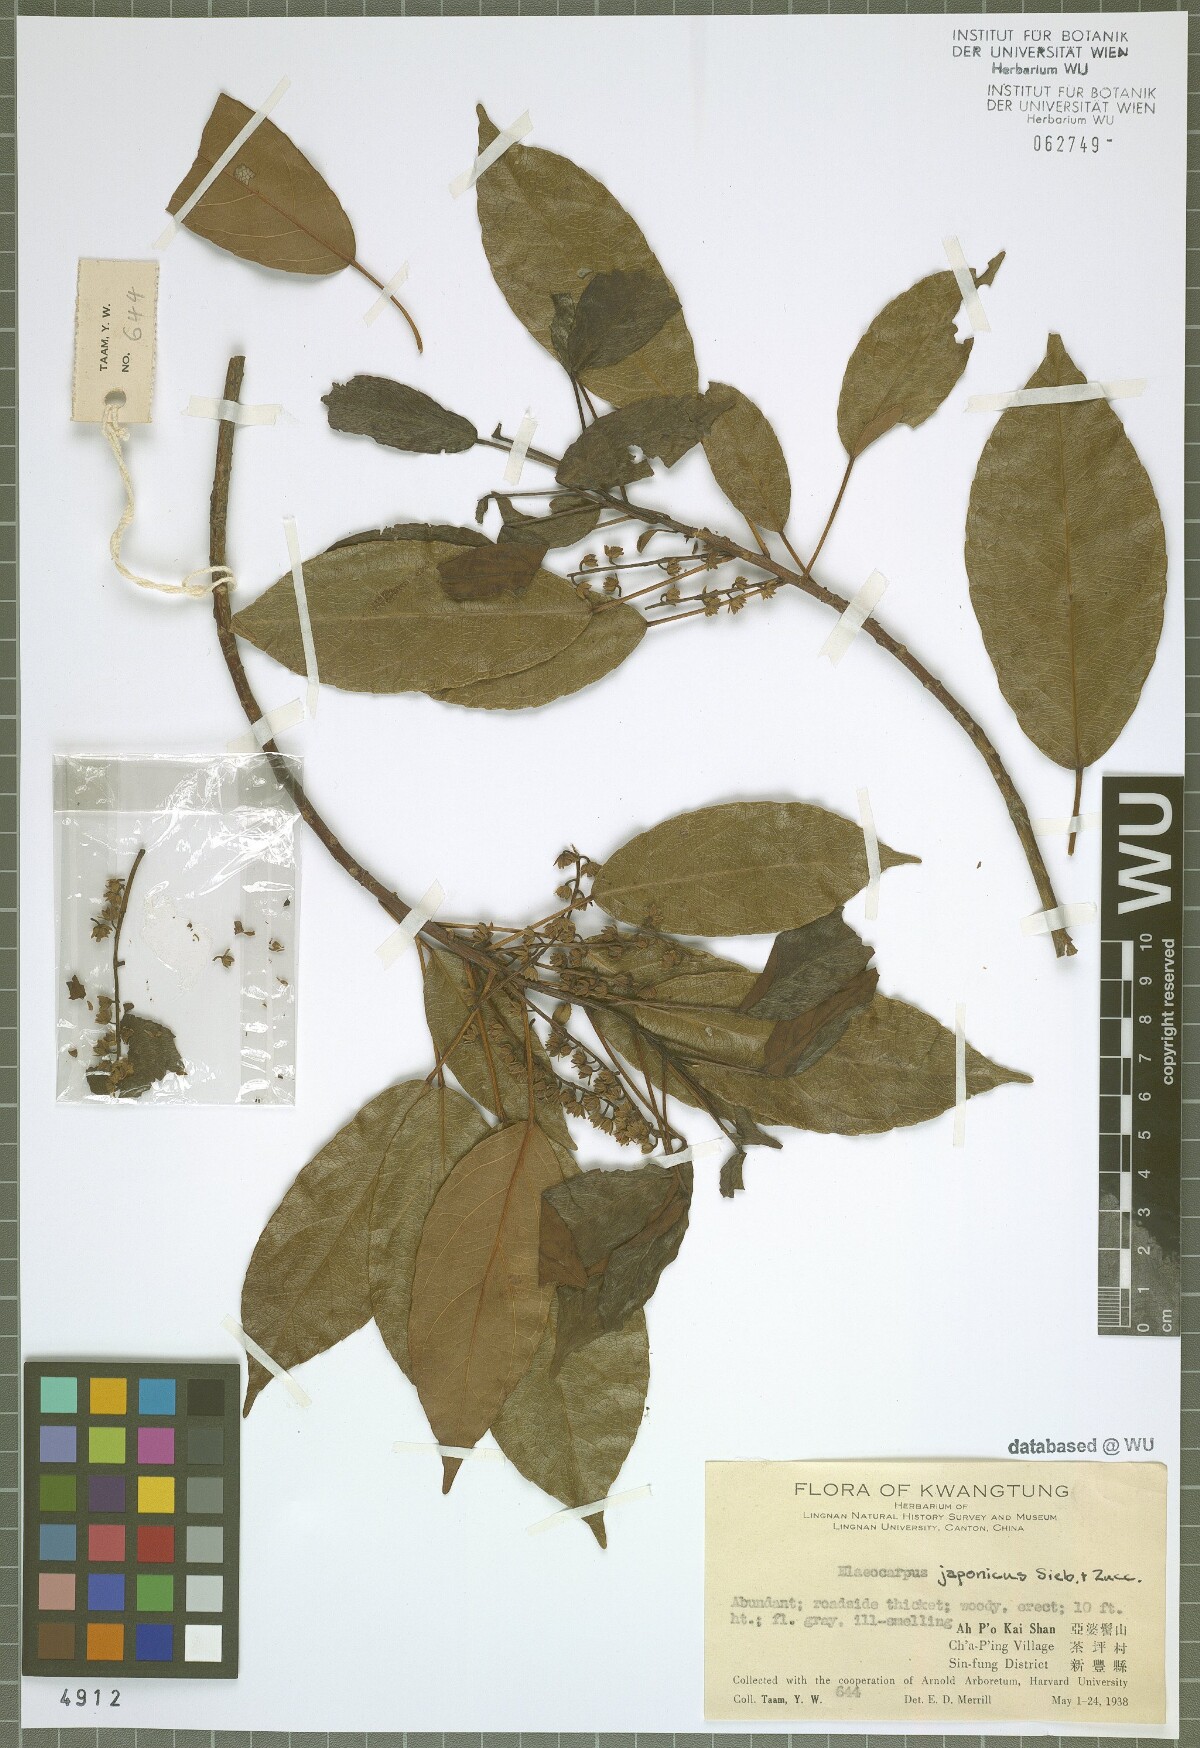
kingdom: Plantae
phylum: Tracheophyta
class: Magnoliopsida
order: Oxalidales
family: Elaeocarpaceae
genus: Elaeocarpus
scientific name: Elaeocarpus japonicus
